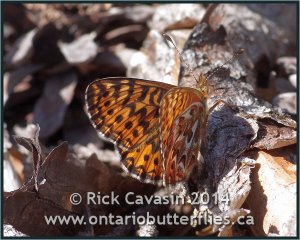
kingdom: Animalia
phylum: Arthropoda
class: Insecta
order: Lepidoptera
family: Nymphalidae
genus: Boloria
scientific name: Boloria freija
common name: Freija Fritillary
